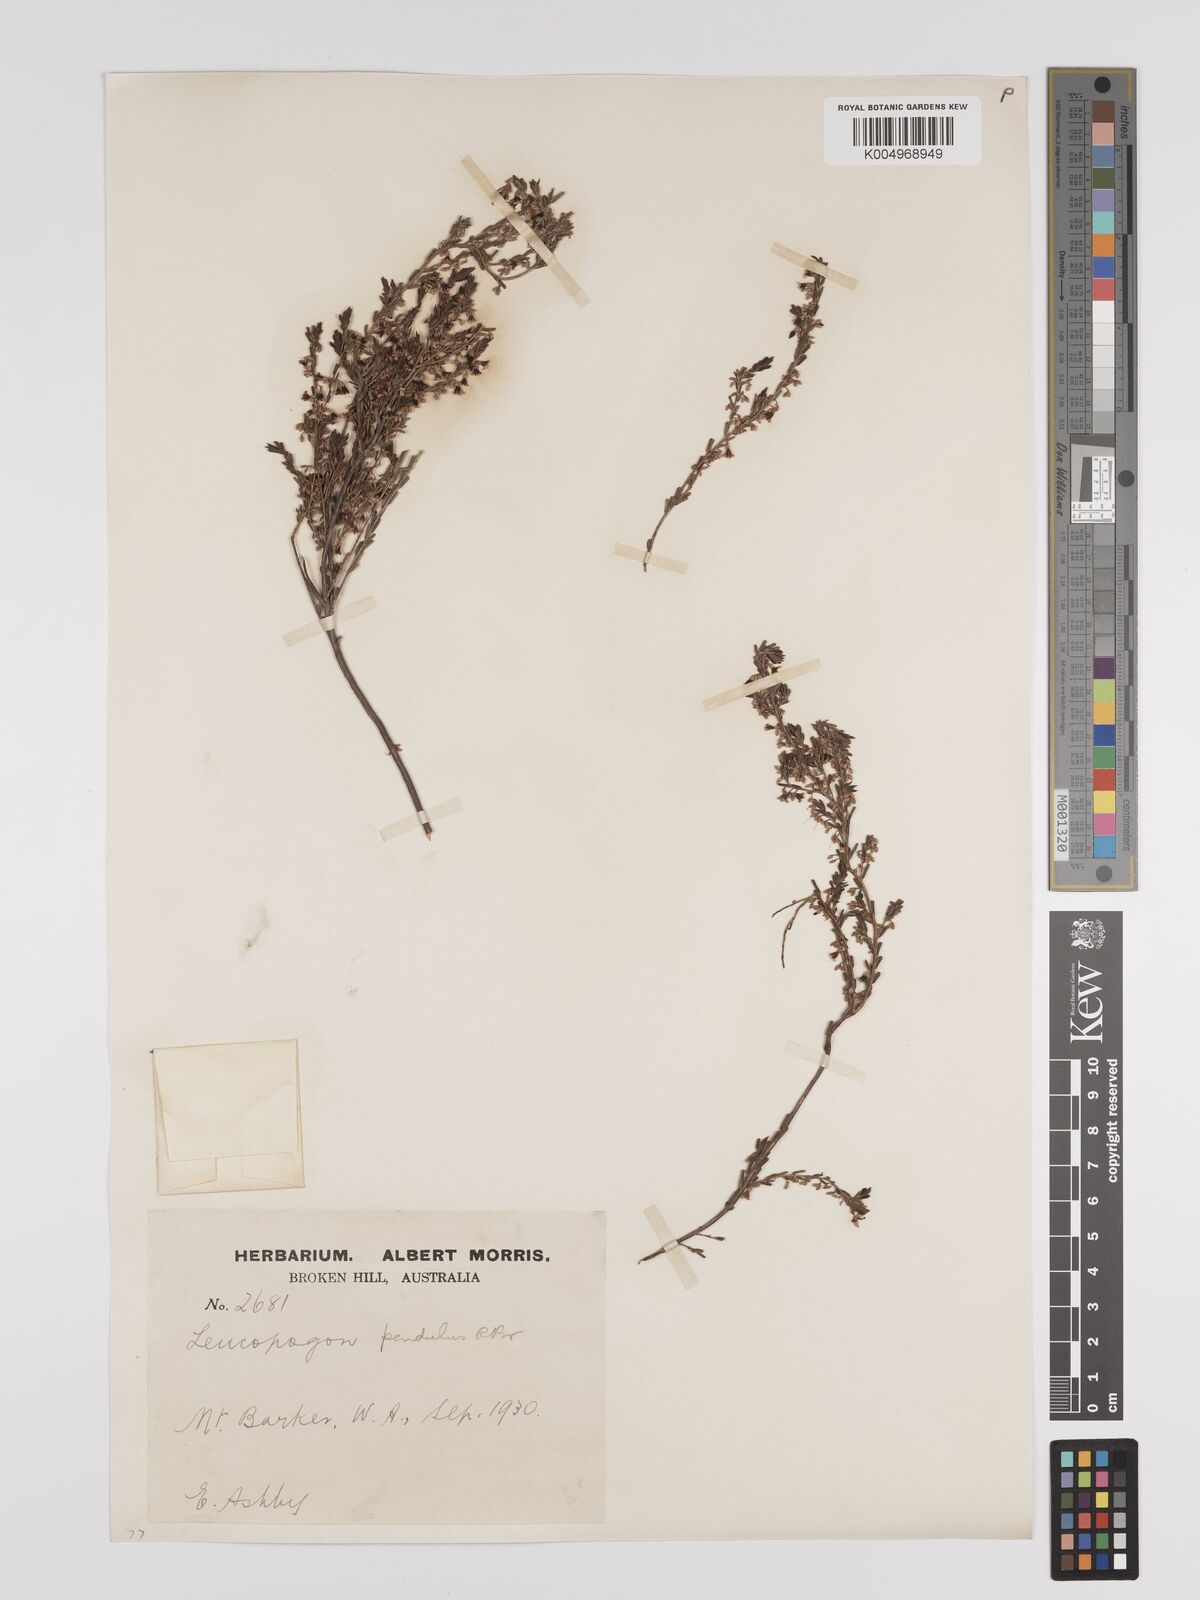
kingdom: Plantae
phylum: Tracheophyta
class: Magnoliopsida
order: Ericales
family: Ericaceae
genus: Styphelia
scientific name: Styphelia pendula
